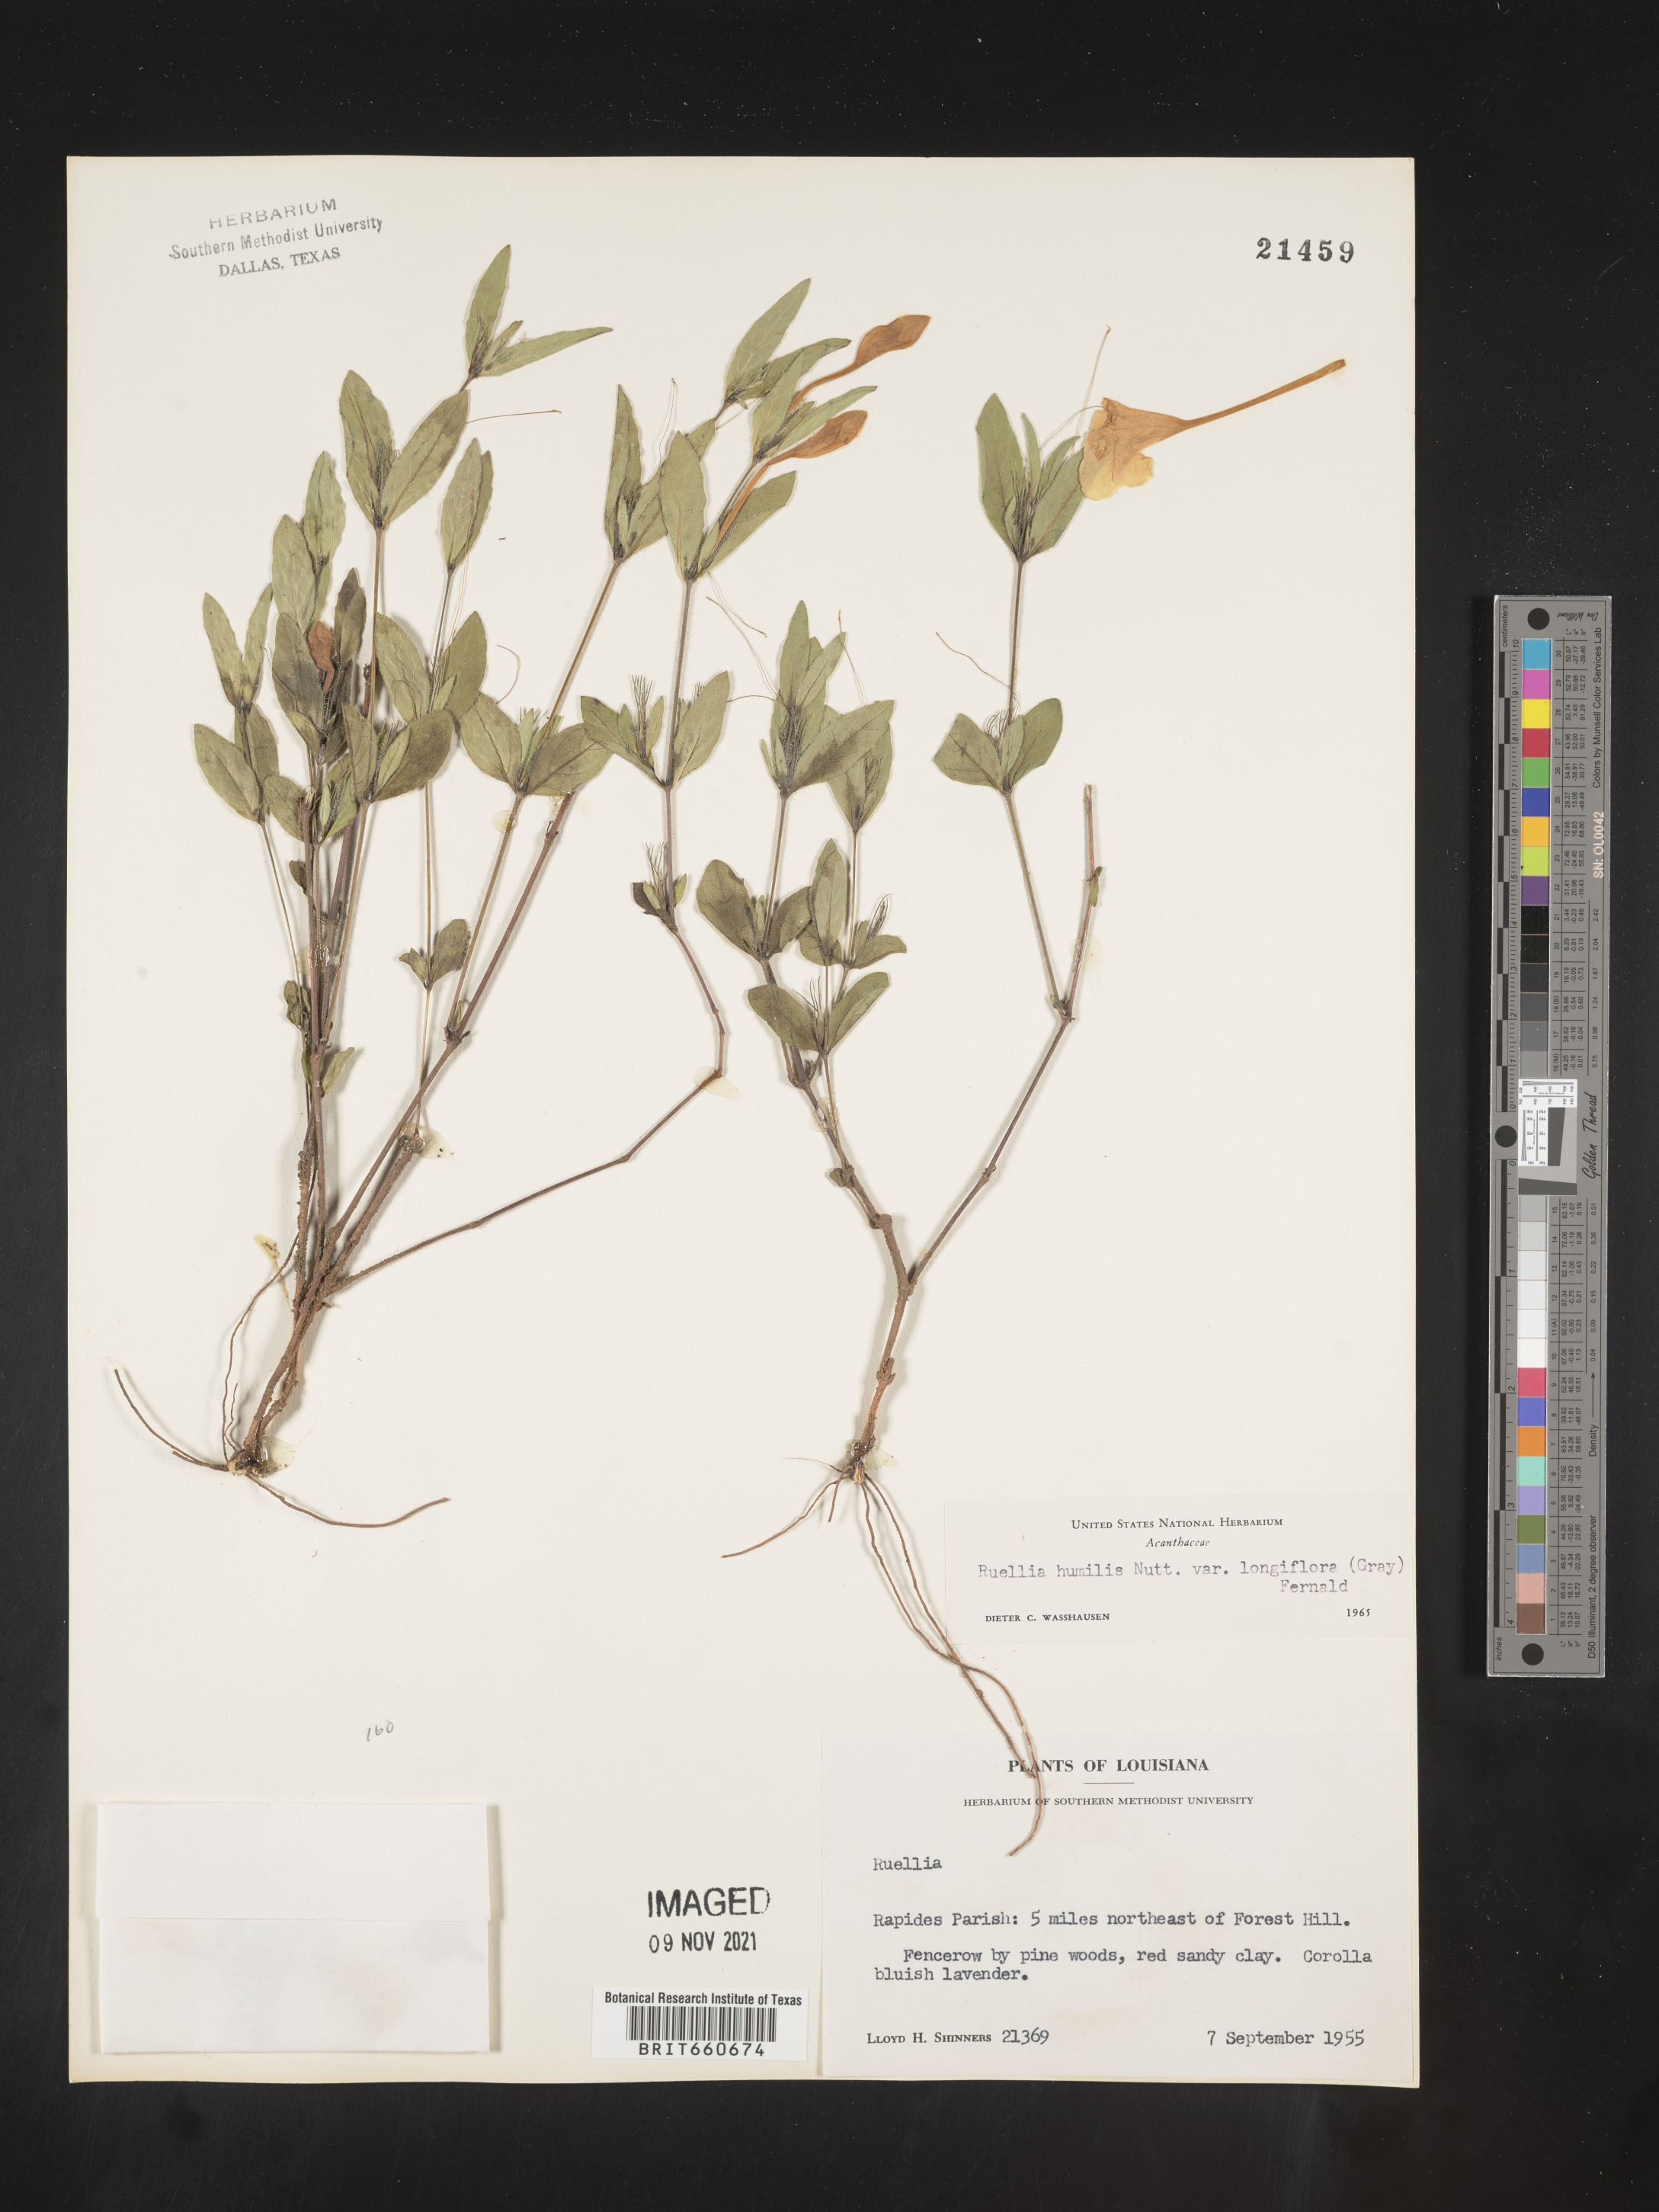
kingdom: Plantae
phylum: Tracheophyta
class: Magnoliopsida
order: Lamiales
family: Acanthaceae
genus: Ruellia
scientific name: Ruellia humilis
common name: Fringe-leaf ruellia
